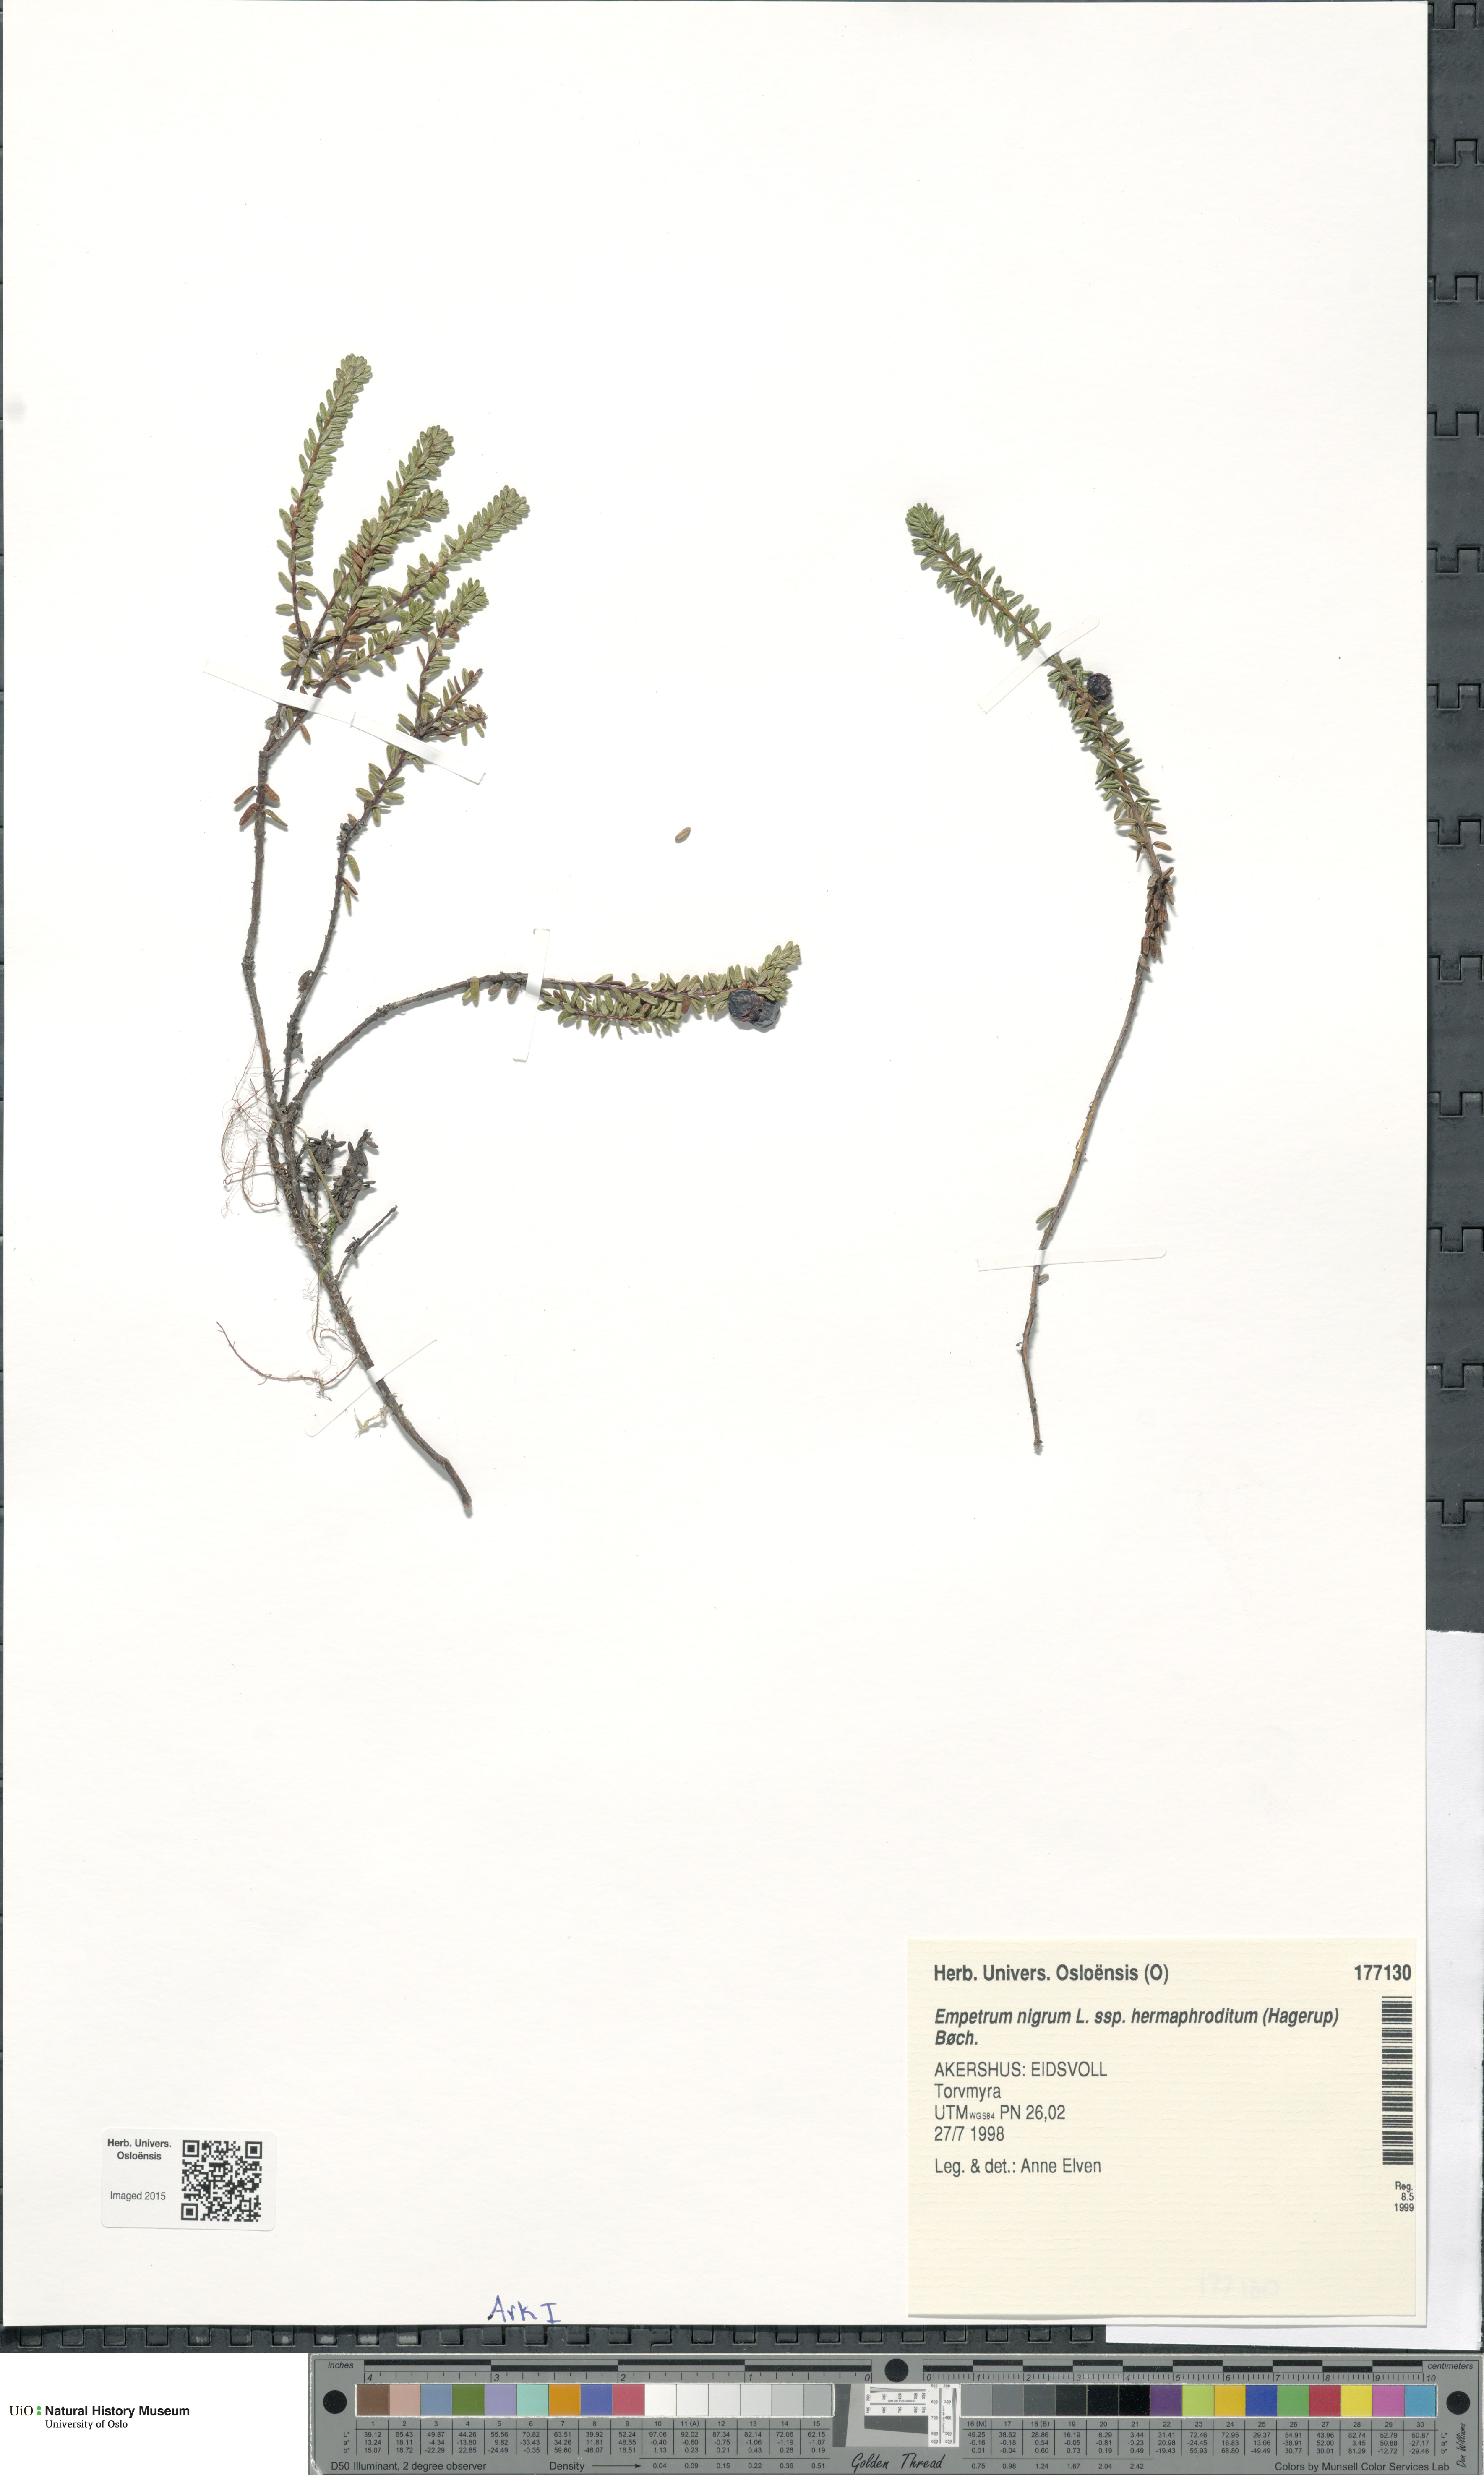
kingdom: Plantae
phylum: Tracheophyta
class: Magnoliopsida
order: Ericales
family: Ericaceae
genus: Empetrum
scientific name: Empetrum hermaphroditum
